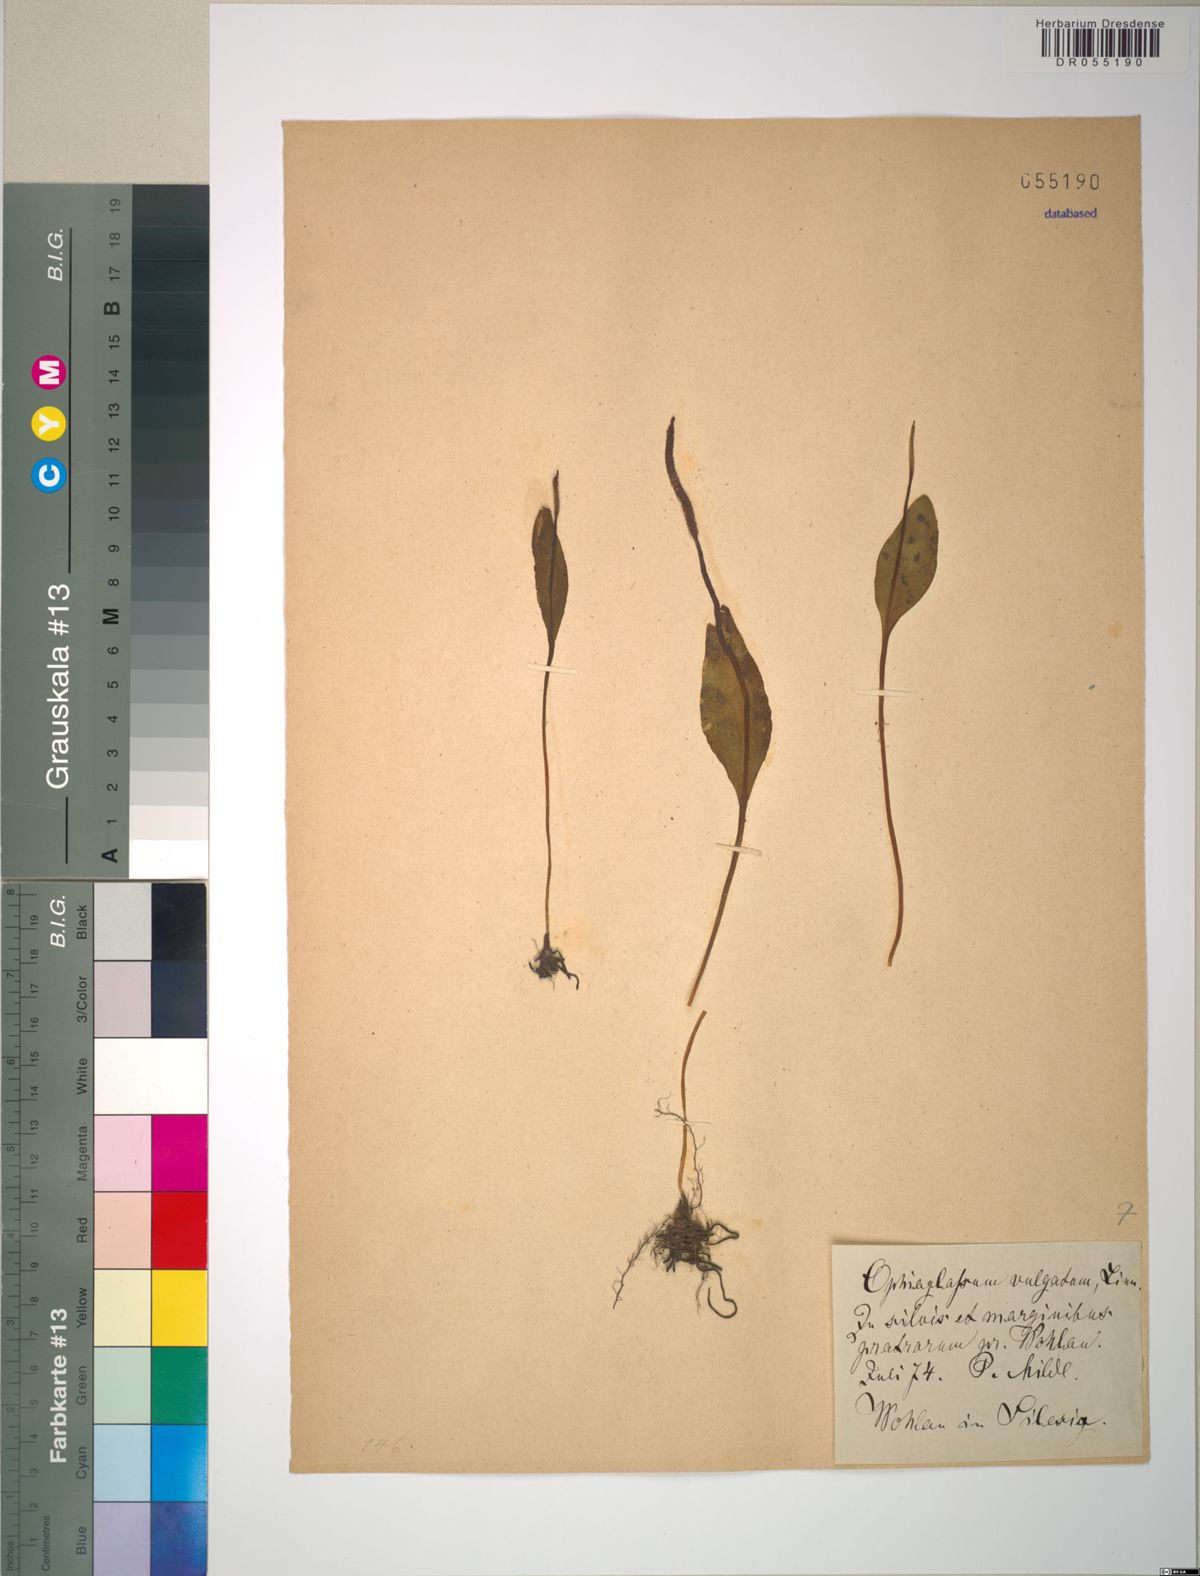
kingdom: Plantae
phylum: Tracheophyta
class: Polypodiopsida
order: Ophioglossales
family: Ophioglossaceae
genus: Ophioglossum
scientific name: Ophioglossum vulgatum
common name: Adder's-tongue
